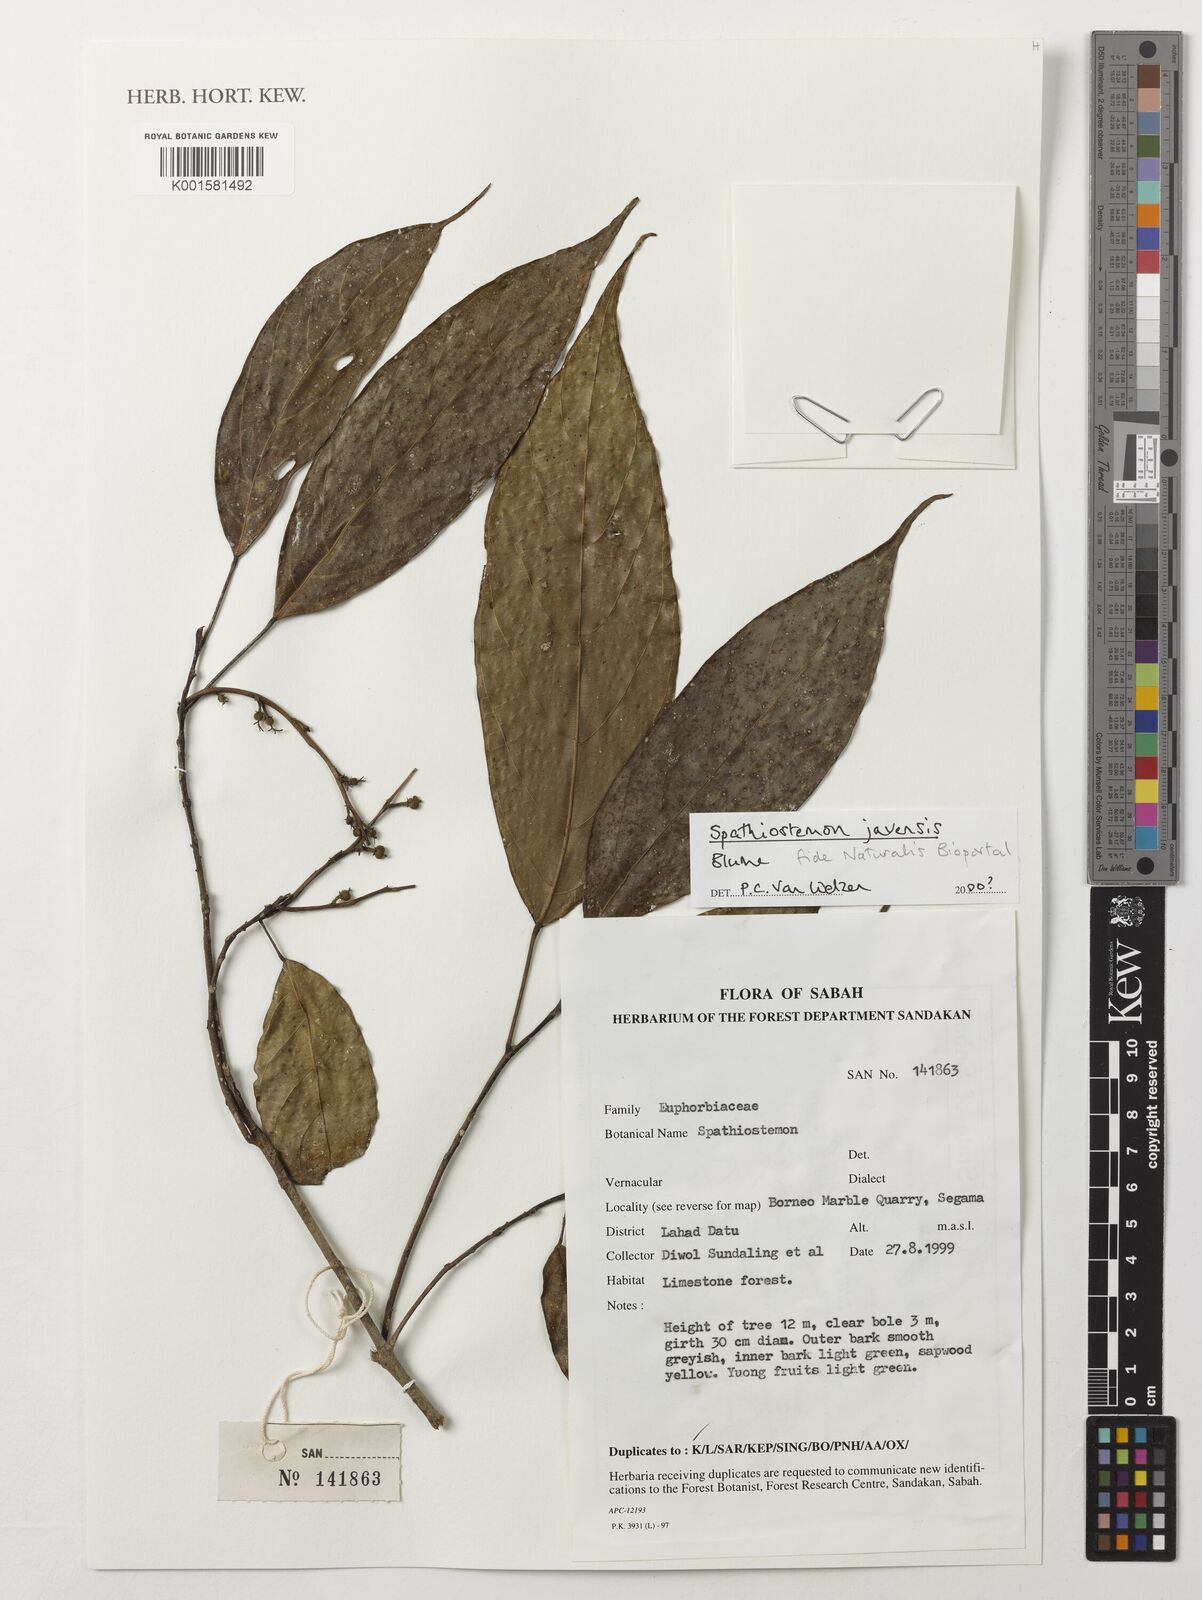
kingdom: Plantae
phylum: Tracheophyta
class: Magnoliopsida
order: Malpighiales
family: Euphorbiaceae
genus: Spathiostemon
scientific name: Spathiostemon javensis
